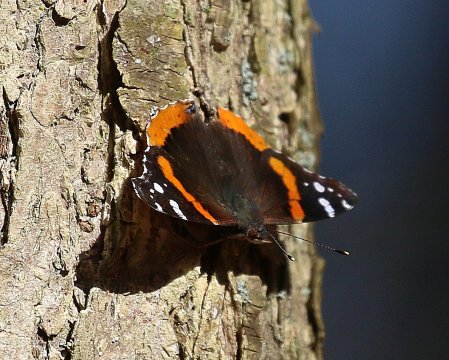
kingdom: Animalia
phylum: Arthropoda
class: Insecta
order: Lepidoptera
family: Nymphalidae
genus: Vanessa
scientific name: Vanessa atalanta
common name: Red Admiral
